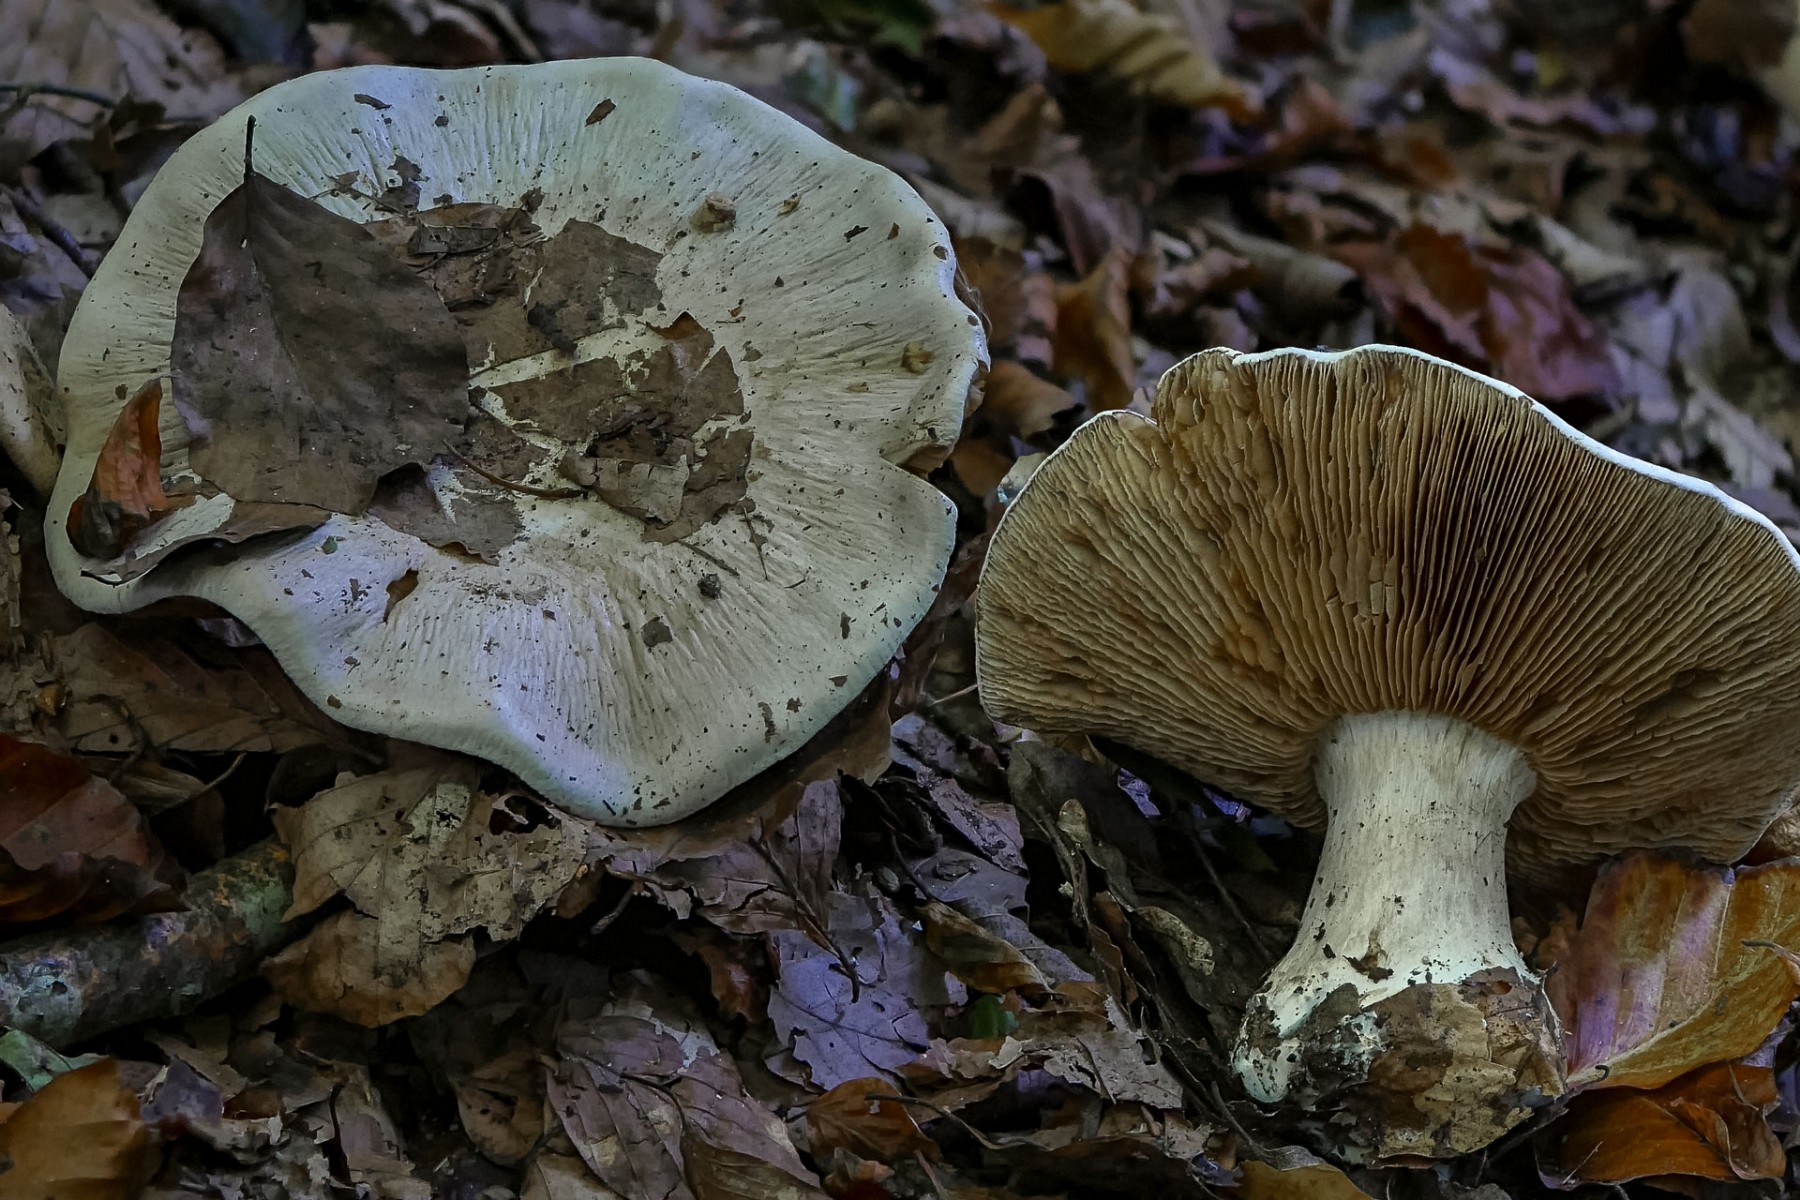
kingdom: Fungi
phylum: Basidiomycota
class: Agaricomycetes
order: Agaricales
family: Cortinariaceae
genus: Cortinarius
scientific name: Cortinarius foetens
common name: stribet slørhat
